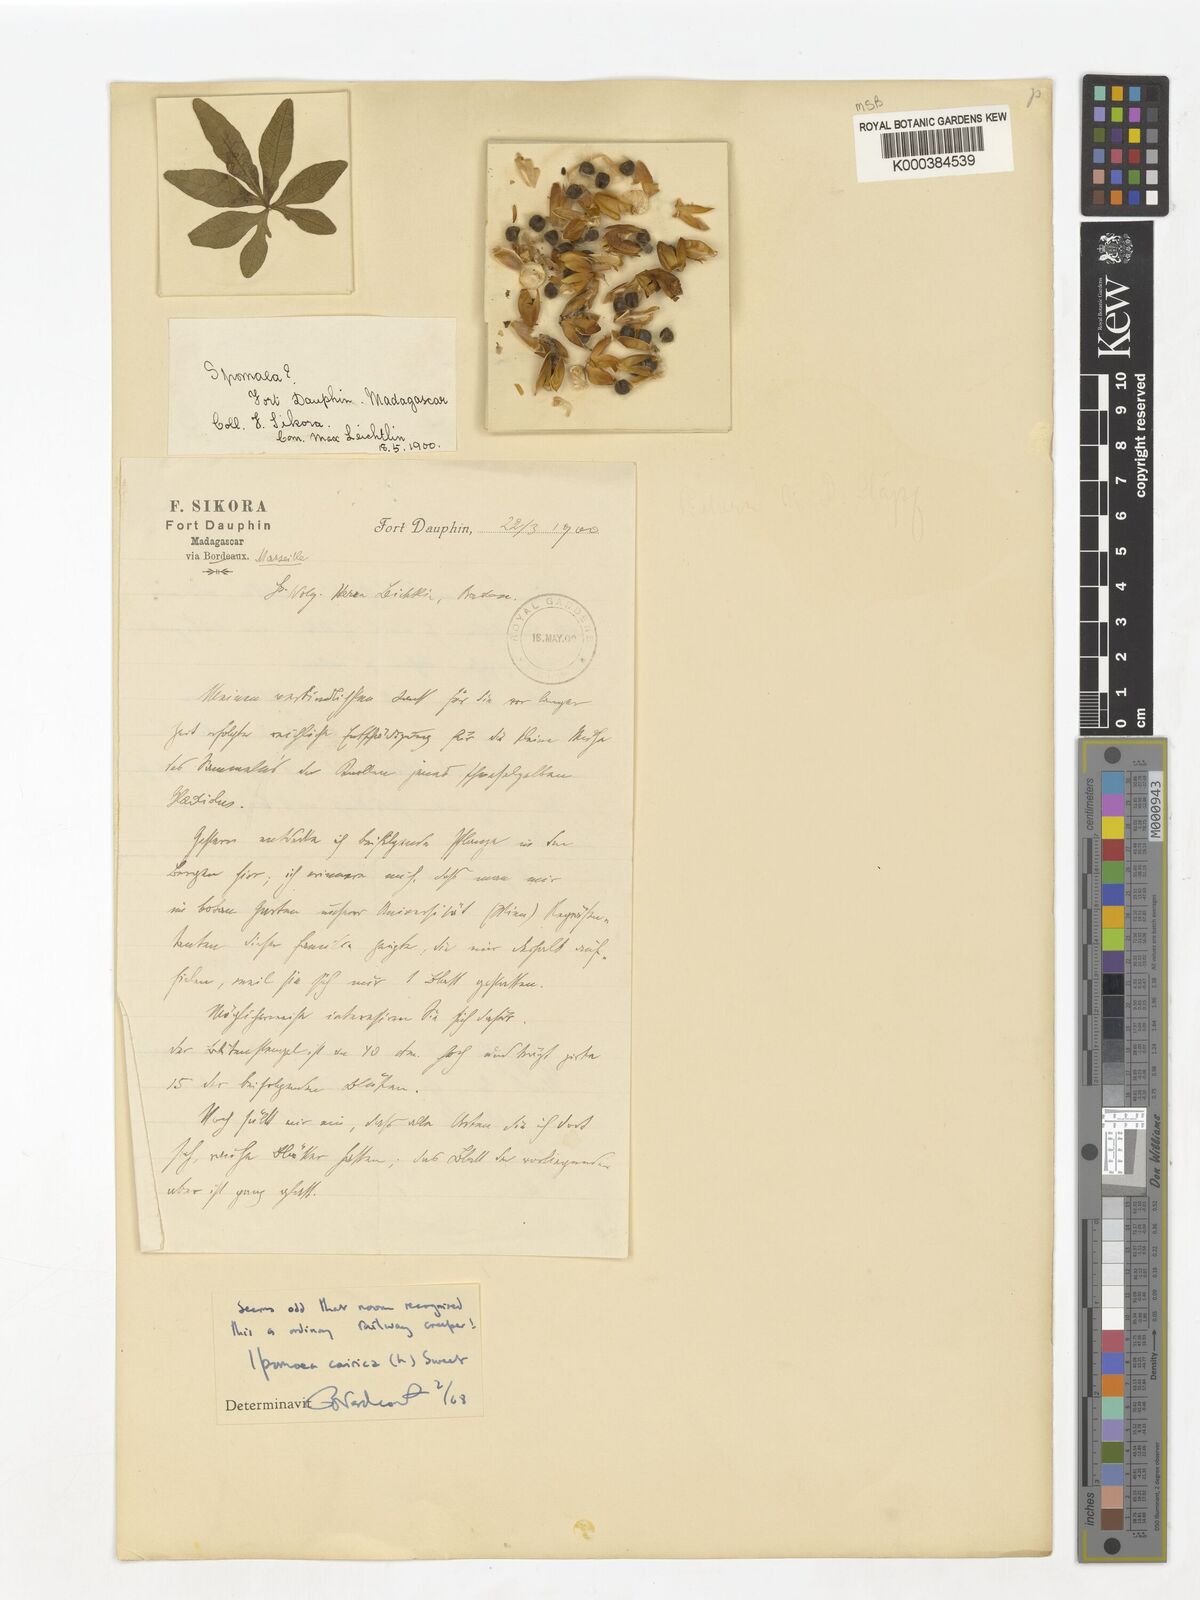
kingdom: Plantae
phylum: Tracheophyta
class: Magnoliopsida
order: Solanales
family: Convolvulaceae
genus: Ipomoea
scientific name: Ipomoea cairica
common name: Mile a minute vine
